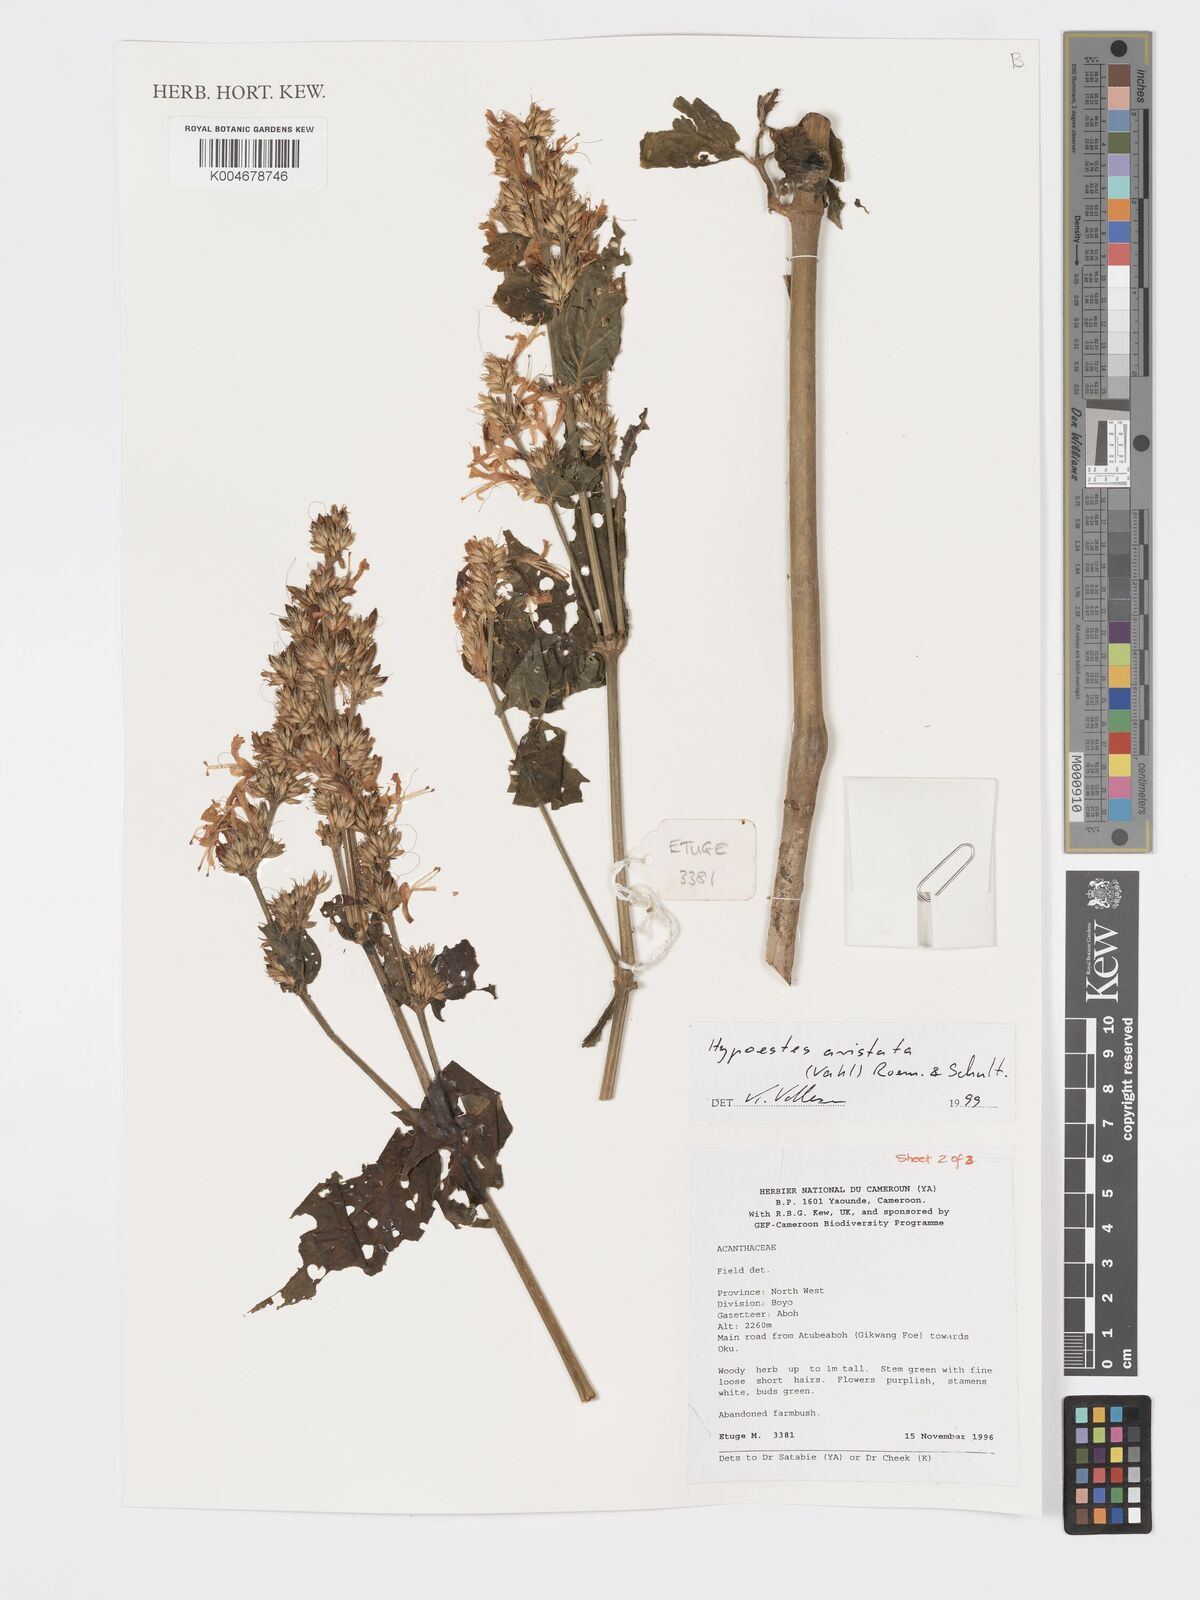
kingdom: Plantae
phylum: Tracheophyta
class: Magnoliopsida
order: Lamiales
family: Acanthaceae
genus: Hypoestes
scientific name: Hypoestes aristata
